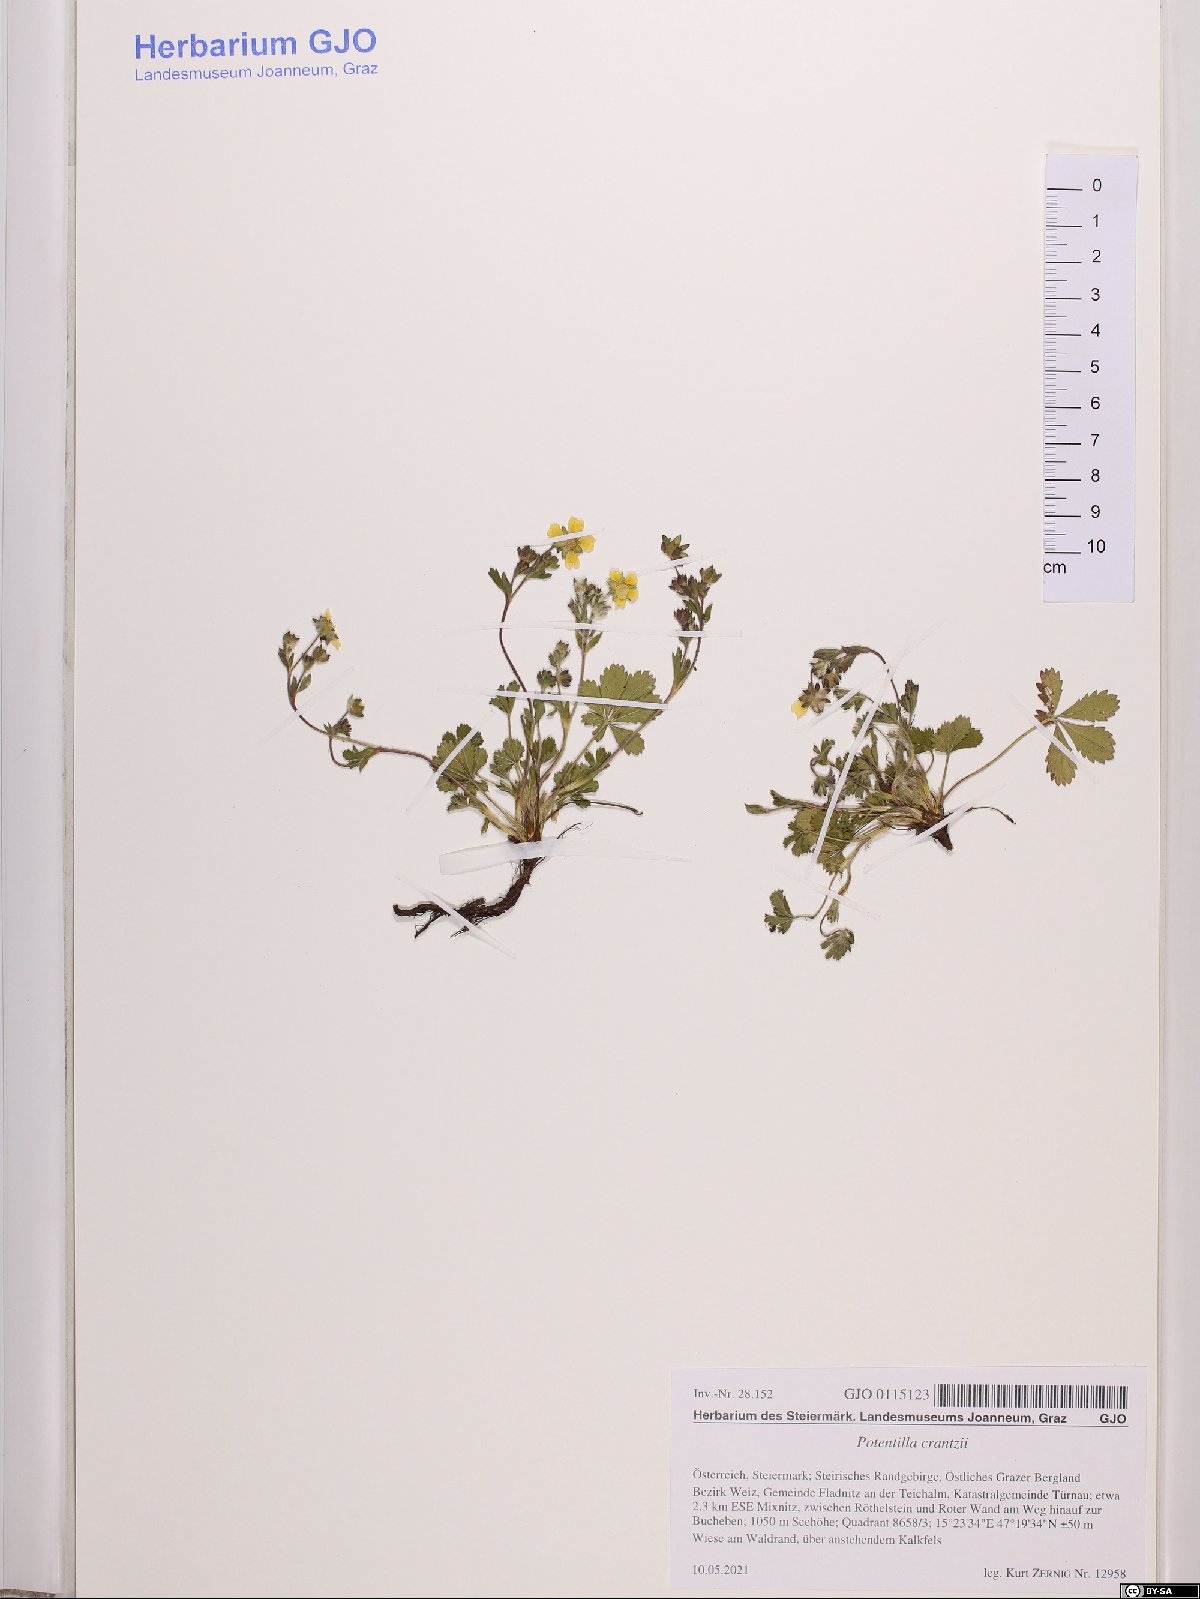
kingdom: Plantae
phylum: Tracheophyta
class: Magnoliopsida
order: Rosales
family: Rosaceae
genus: Potentilla
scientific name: Potentilla crantzii
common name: Alpine cinquefoil
